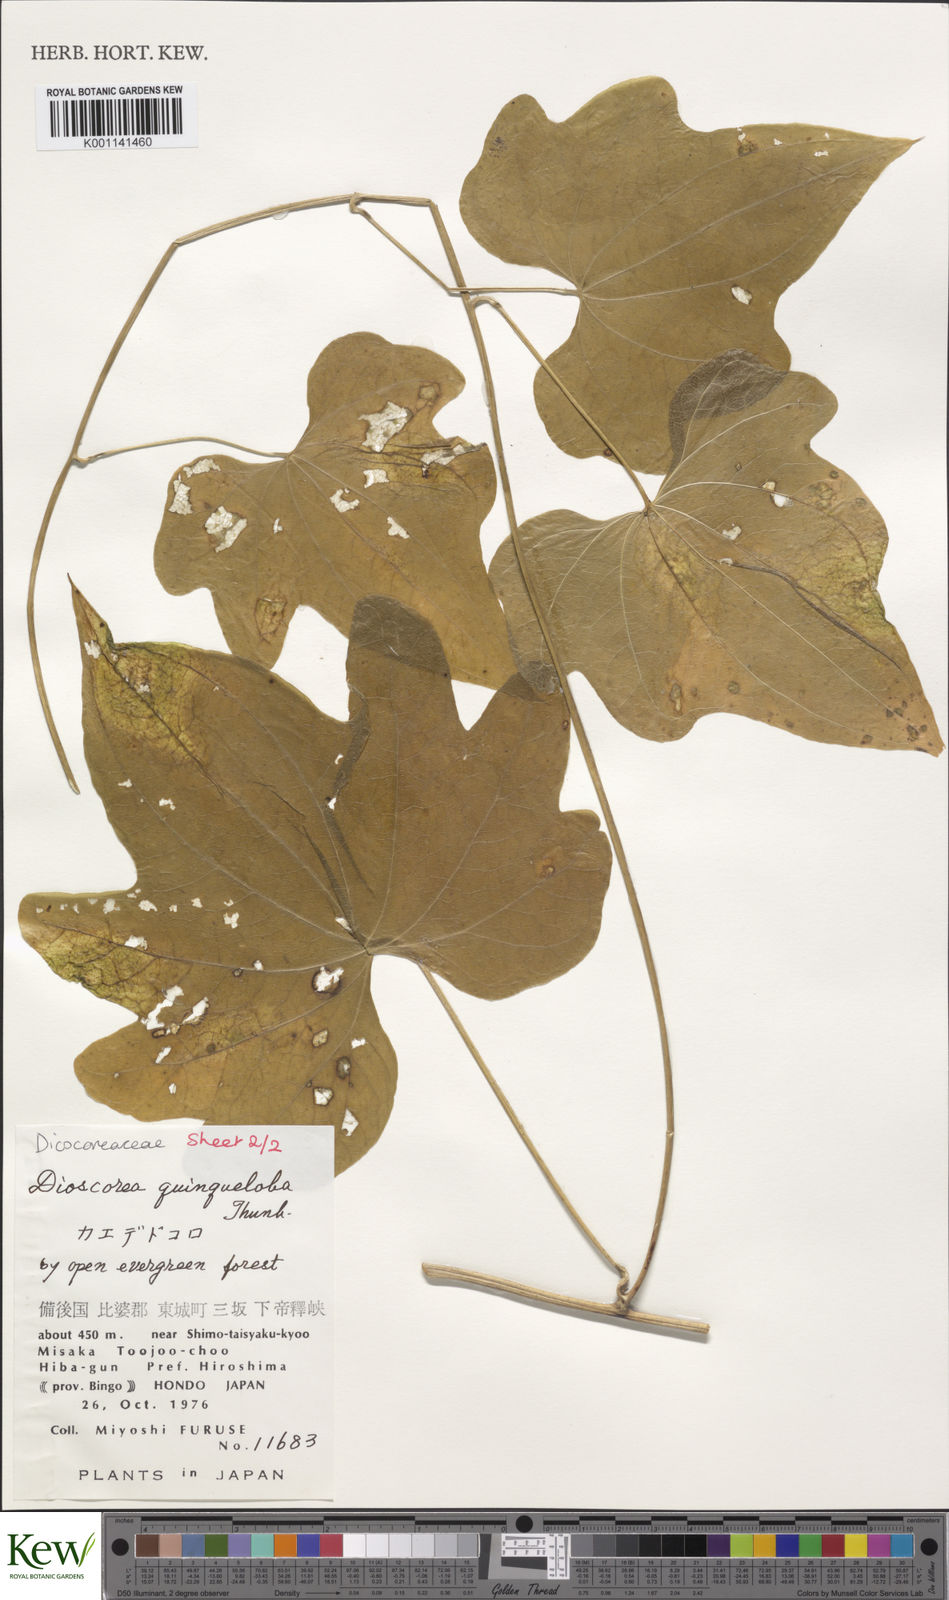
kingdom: Plantae
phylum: Tracheophyta
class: Liliopsida
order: Dioscoreales
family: Dioscoreaceae
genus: Dioscorea
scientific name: Dioscorea quinquelobata
